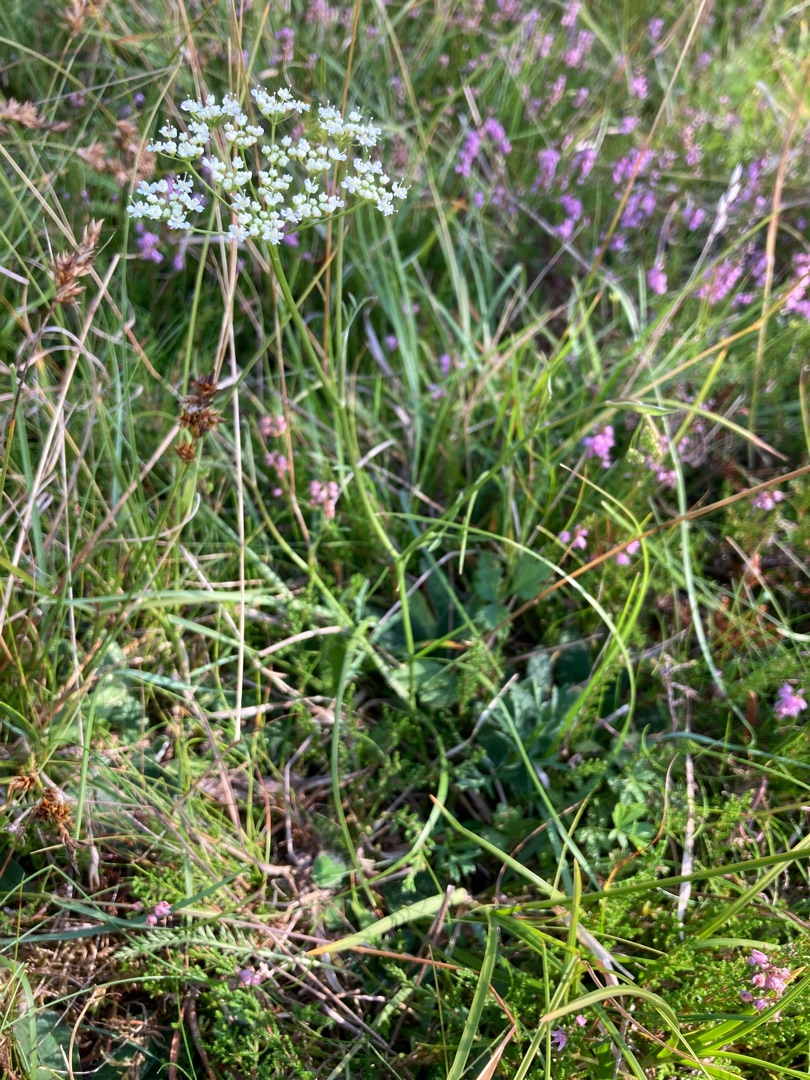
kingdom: Plantae
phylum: Tracheophyta
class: Magnoliopsida
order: Apiales
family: Apiaceae
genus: Pimpinella
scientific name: Pimpinella saxifraga
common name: Almindelig pimpinelle
